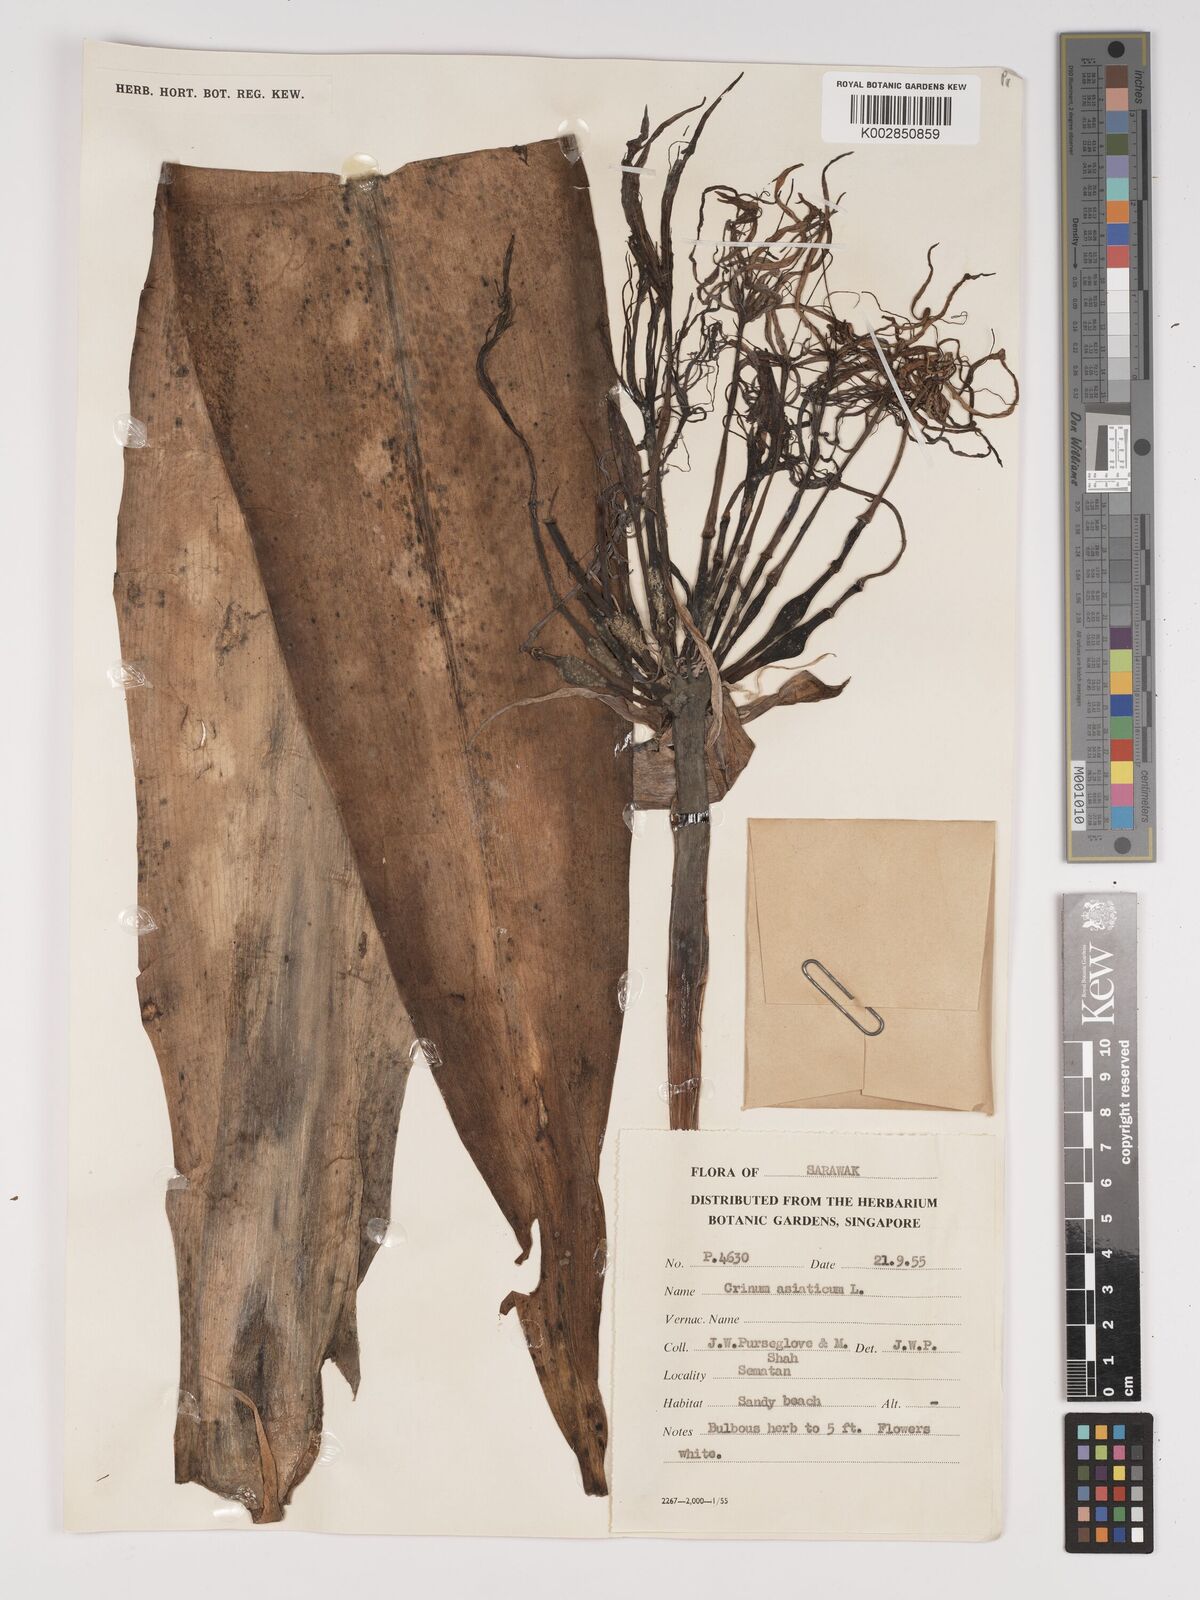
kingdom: Plantae
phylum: Tracheophyta
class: Liliopsida
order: Asparagales
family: Amaryllidaceae
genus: Crinum
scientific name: Crinum asiaticum
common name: Poisonbulb
